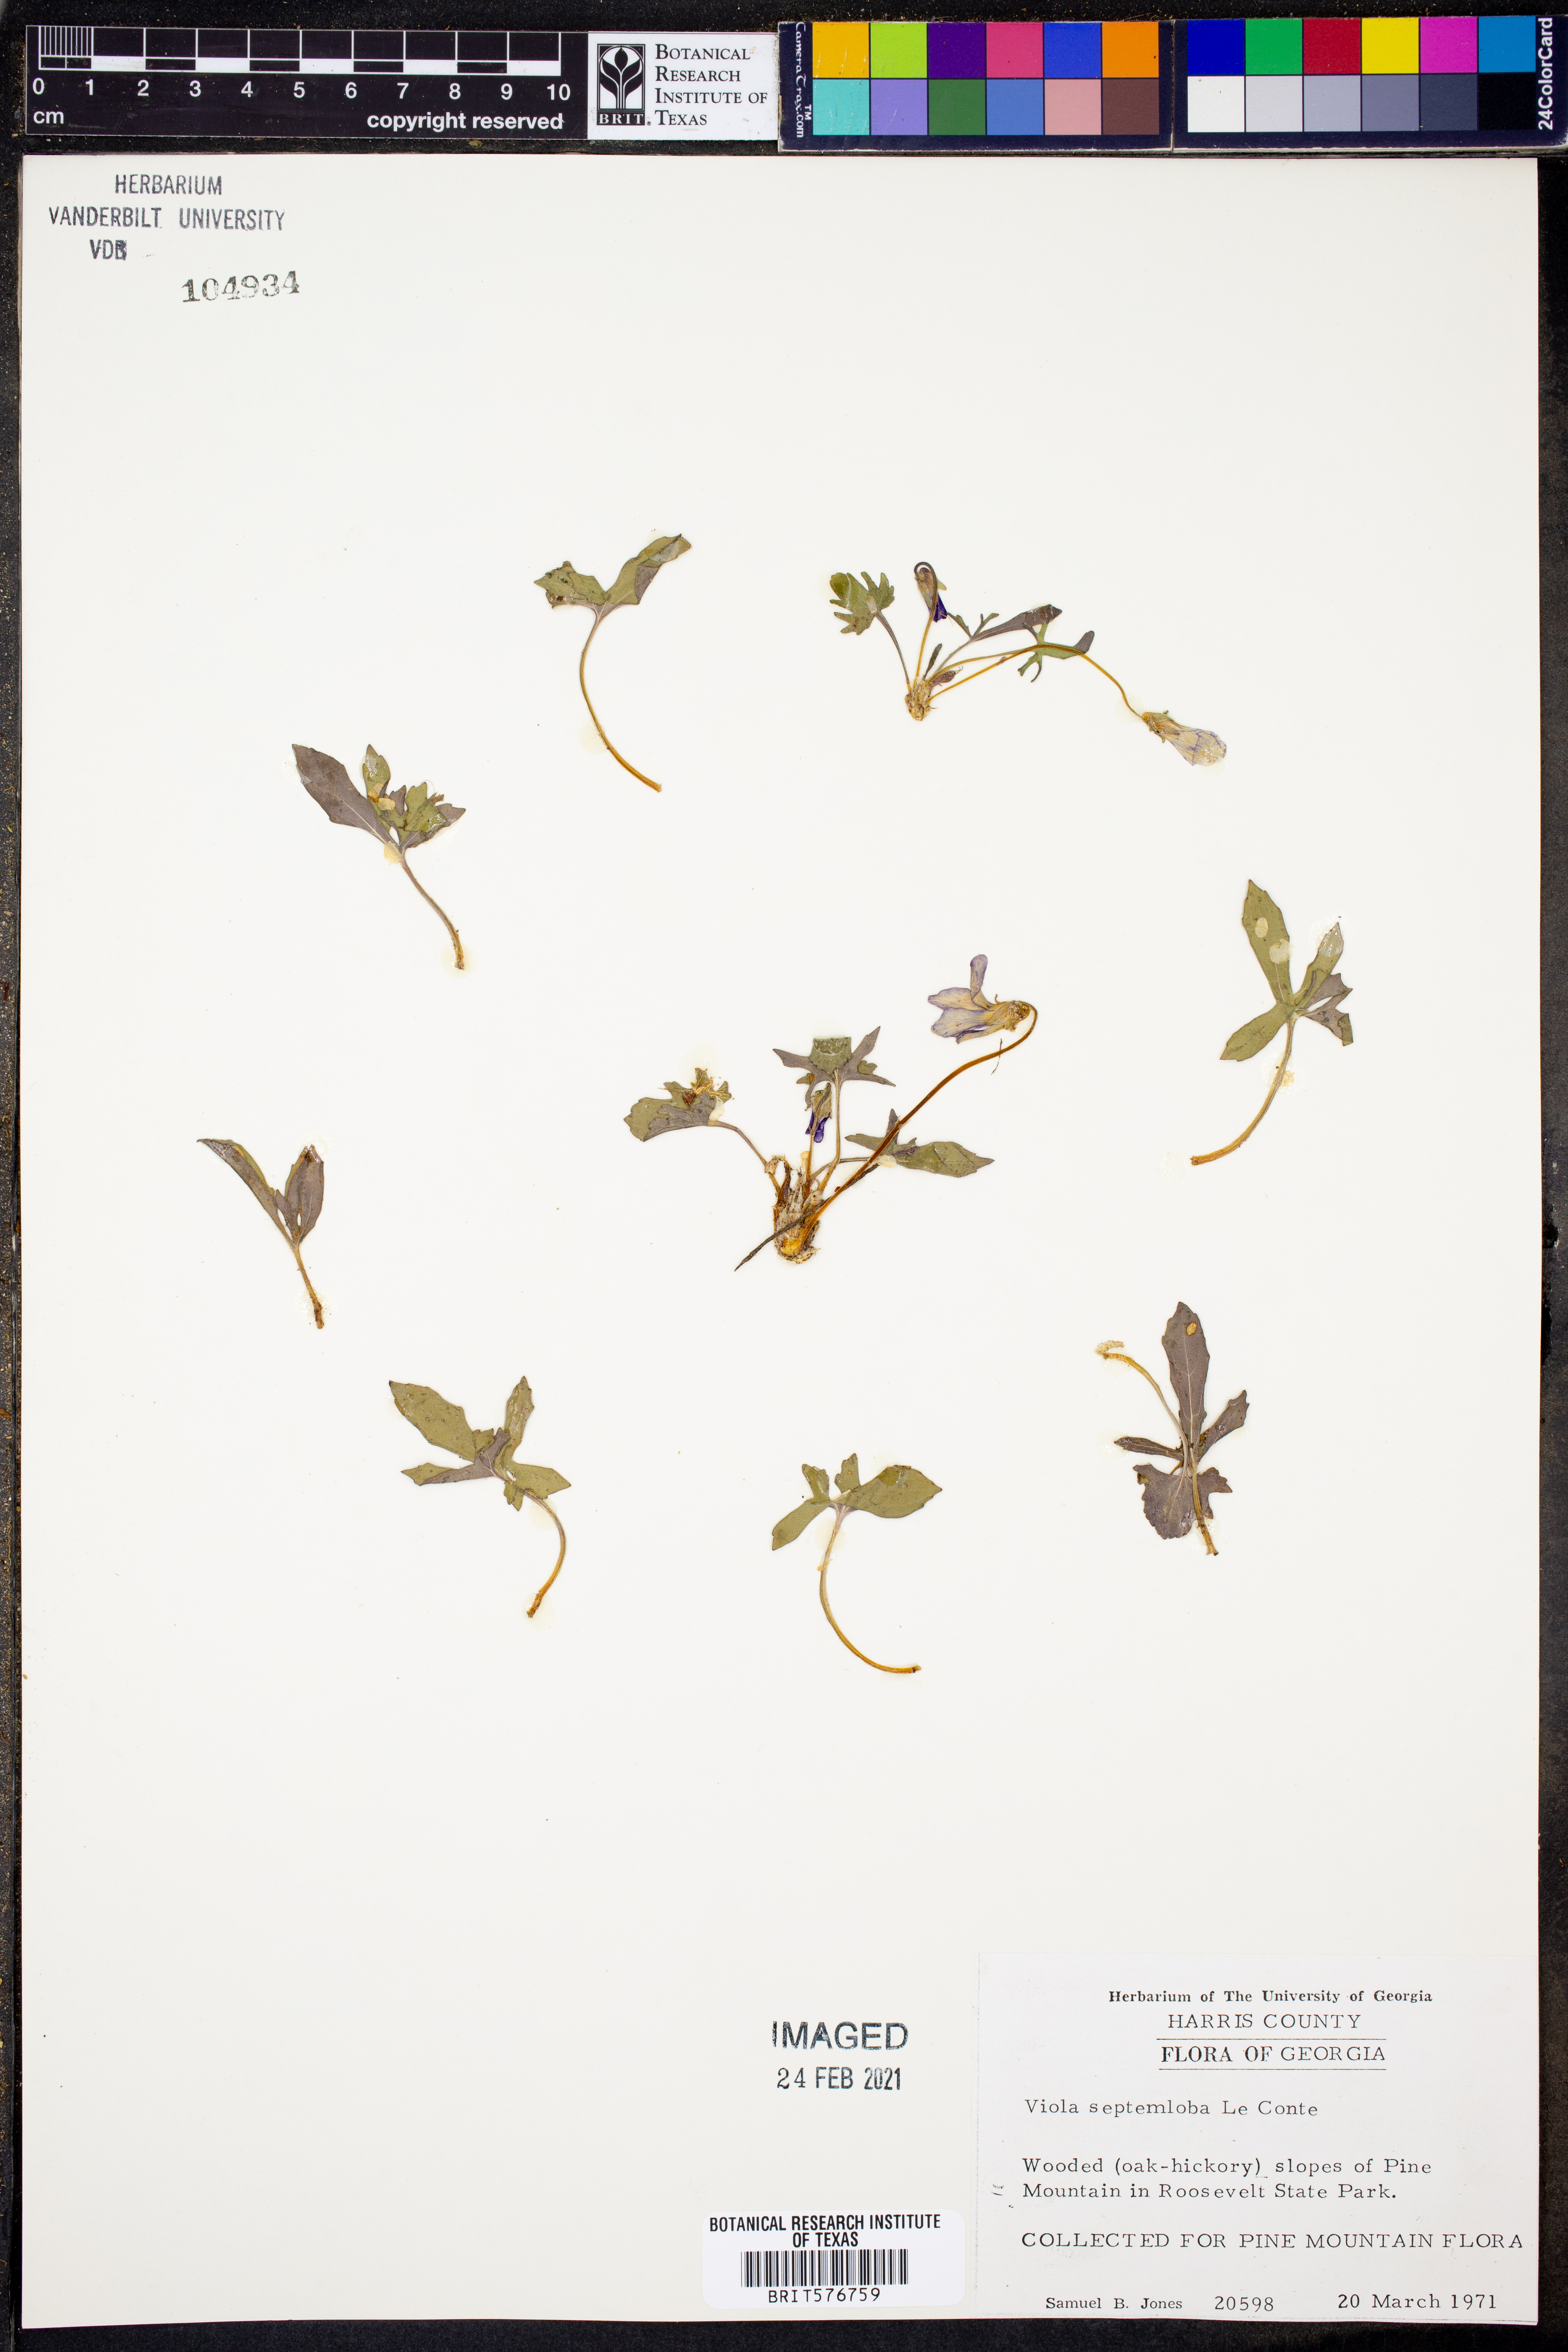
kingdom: Plantae
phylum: Tracheophyta
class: Magnoliopsida
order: Malpighiales
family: Violaceae
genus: Viola
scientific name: Viola septemloba
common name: Southern coast violet
